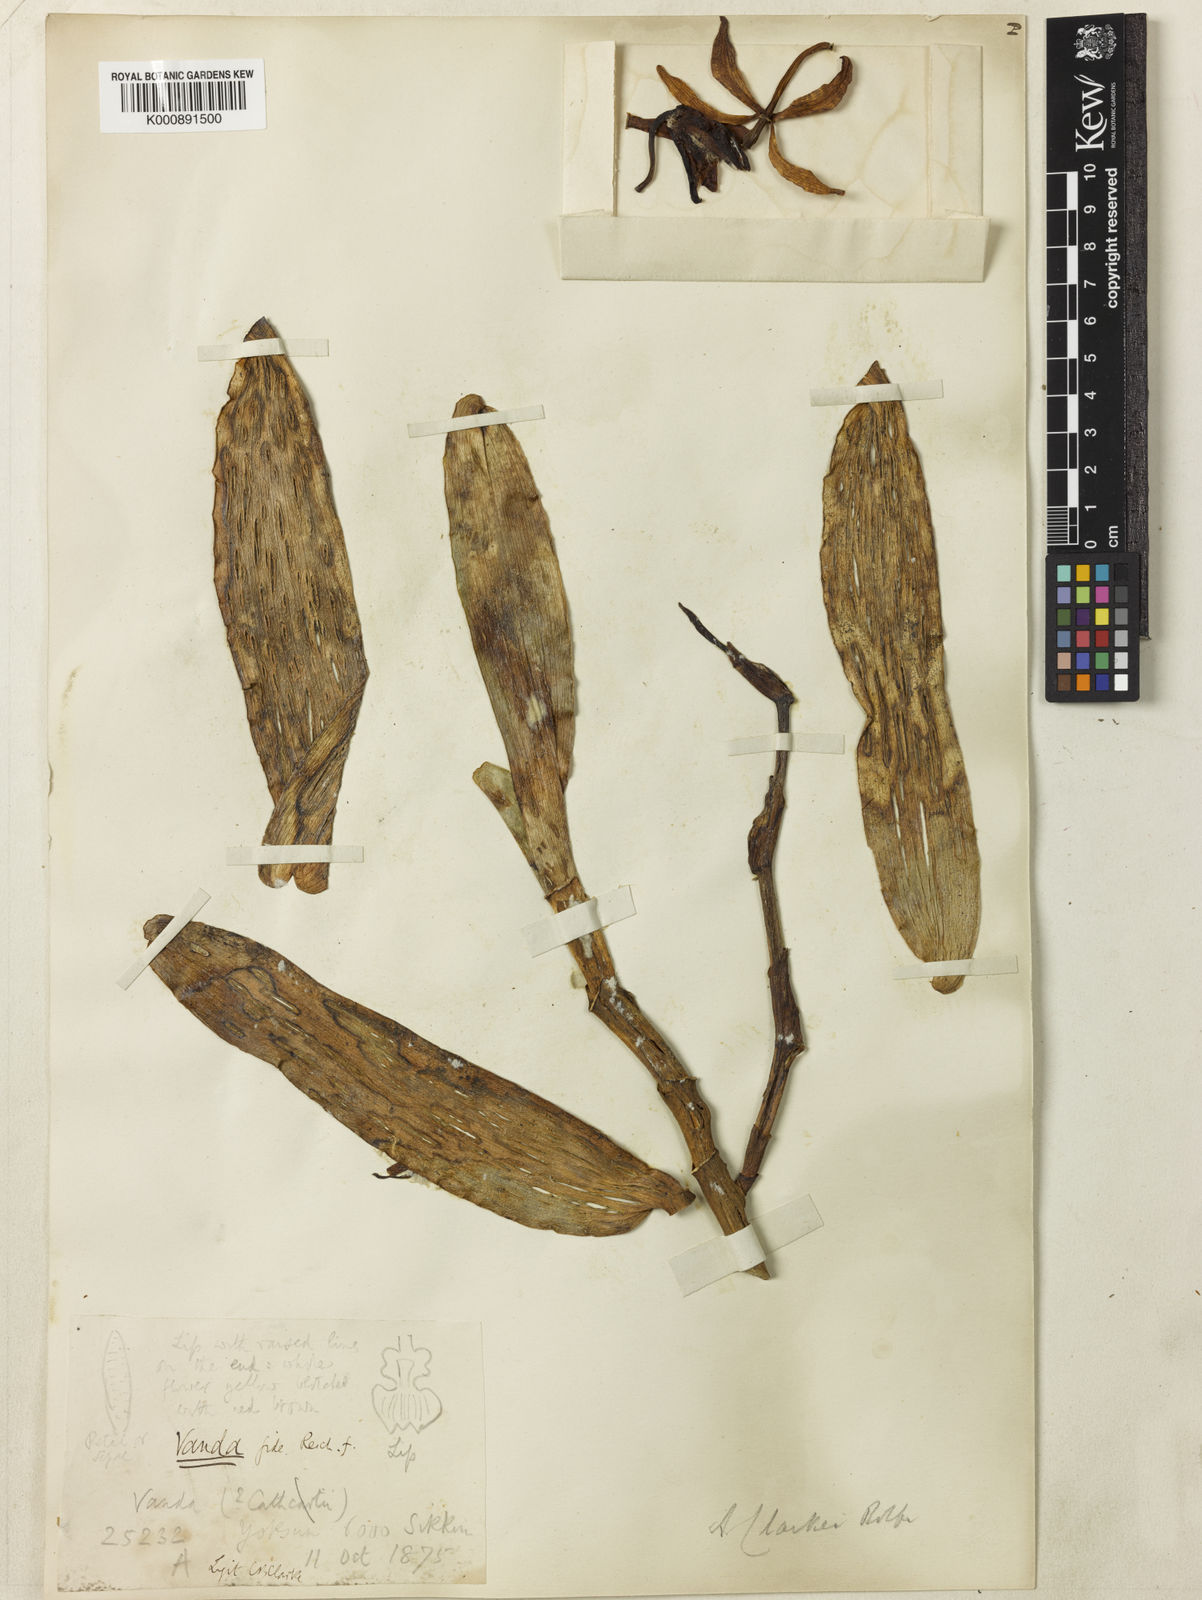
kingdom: Plantae
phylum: Tracheophyta
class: Liliopsida
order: Asparagales
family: Orchidaceae
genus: Arachnis
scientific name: Arachnis clarkei
